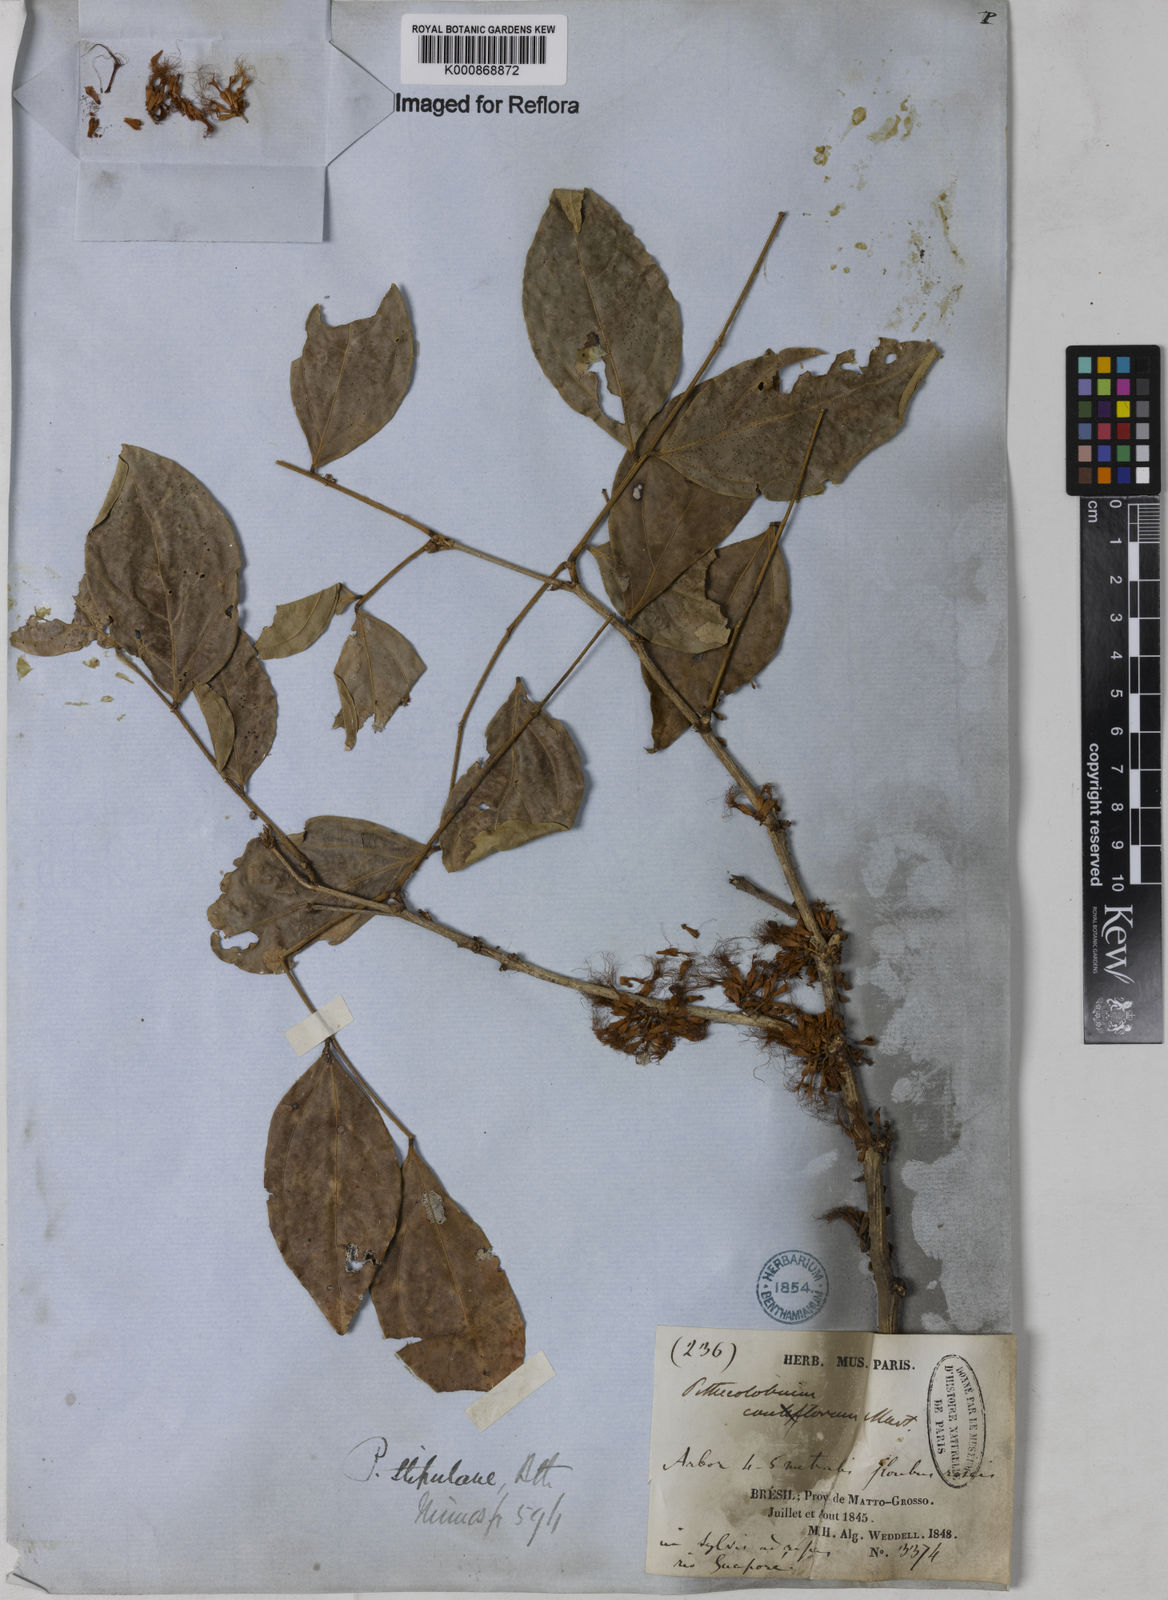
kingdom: Plantae
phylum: Tracheophyta
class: Magnoliopsida
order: Fabales
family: Fabaceae
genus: Zygia
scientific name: Zygia cauliflora
